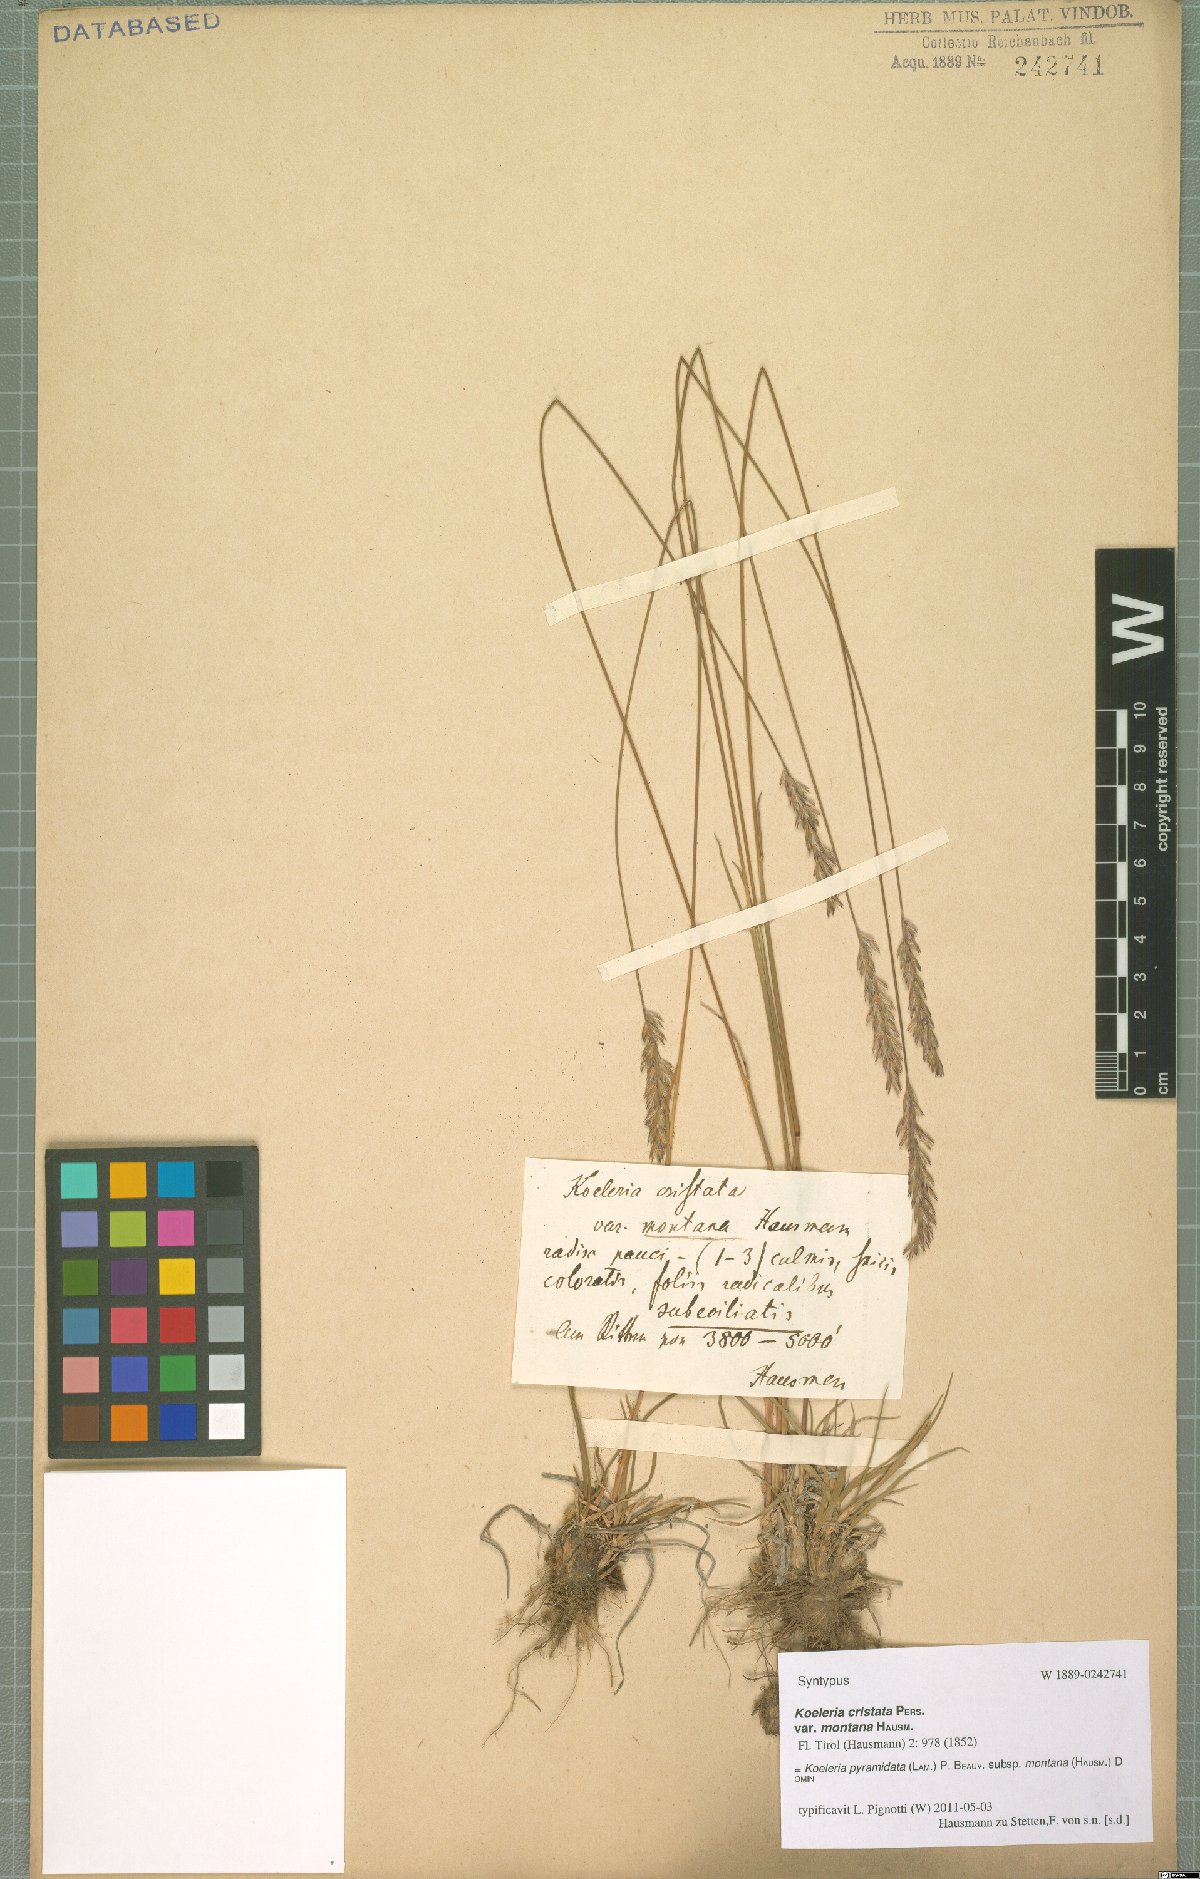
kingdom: Plantae
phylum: Tracheophyta
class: Liliopsida
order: Poales
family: Poaceae
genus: Koeleria
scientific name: Koeleria pyramidata
